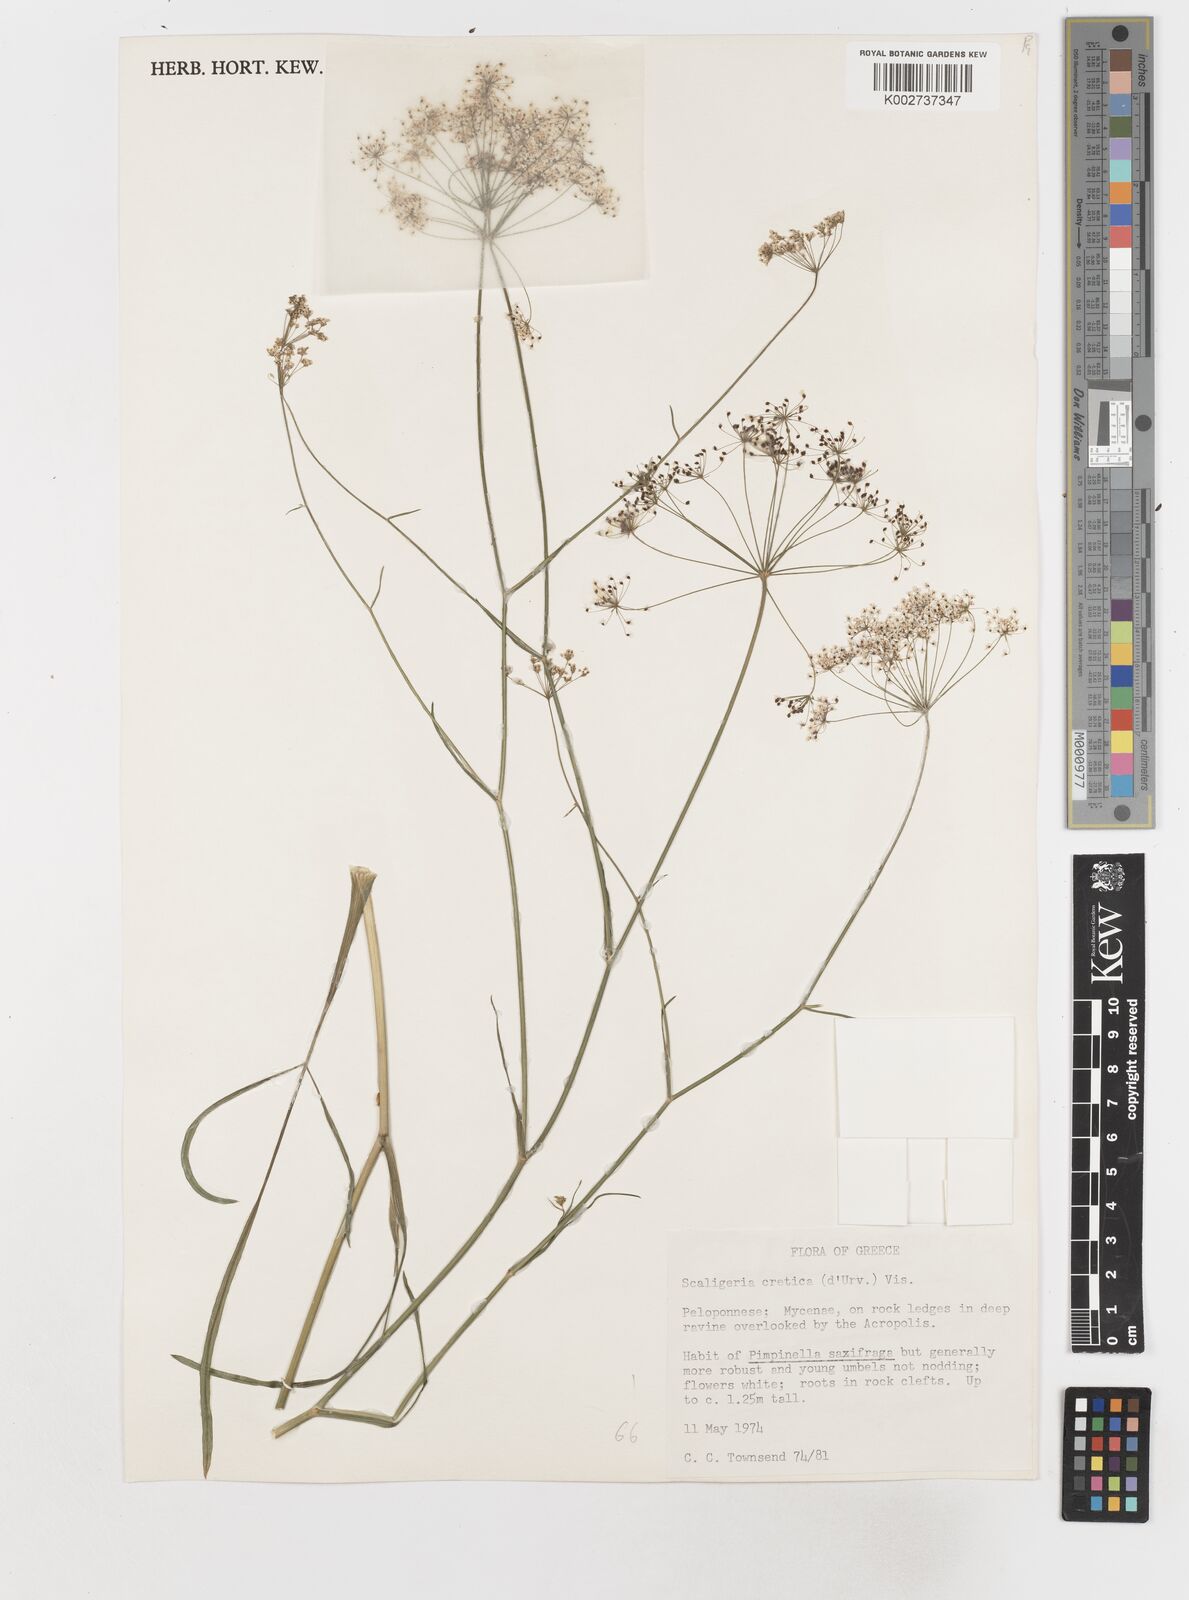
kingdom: Plantae
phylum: Tracheophyta
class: Magnoliopsida
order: Apiales
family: Apiaceae
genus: Scaligeria
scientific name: Scaligeria napiformis
